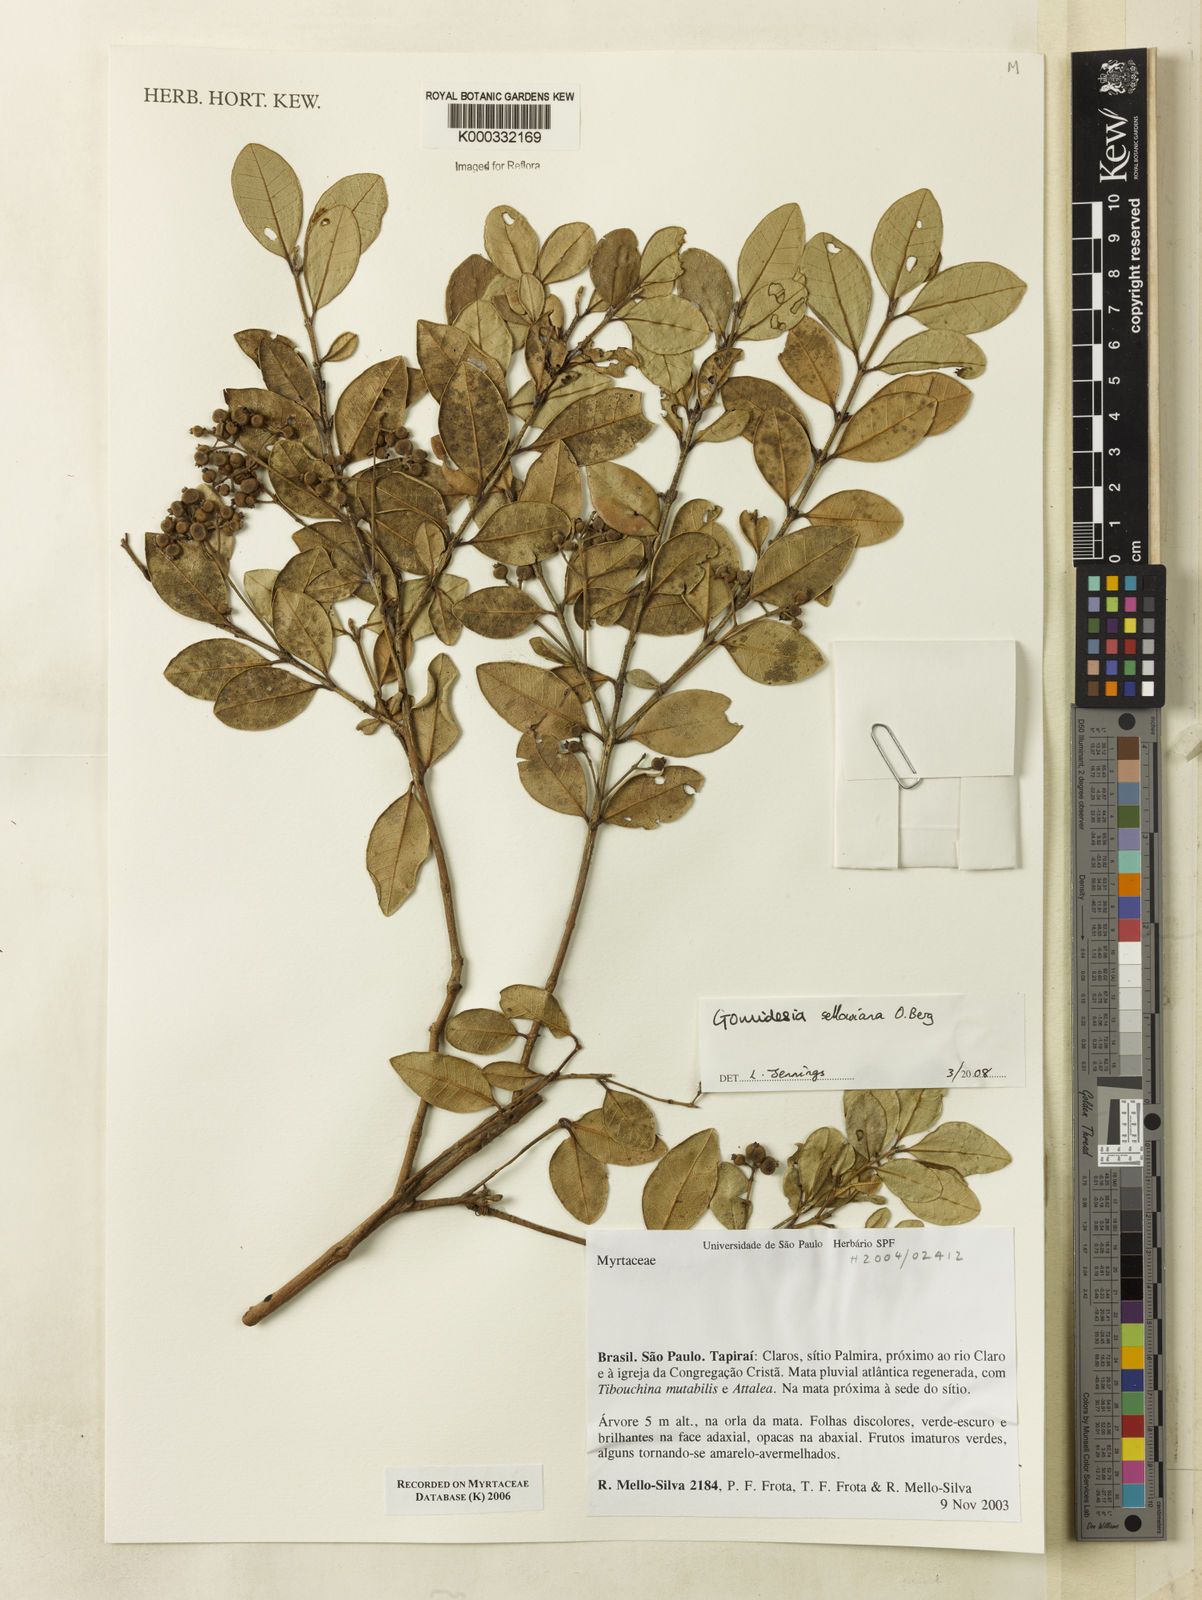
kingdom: Plantae
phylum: Tracheophyta
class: Magnoliopsida
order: Myrtales
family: Myrtaceae
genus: Myrcia
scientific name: Myrcia
